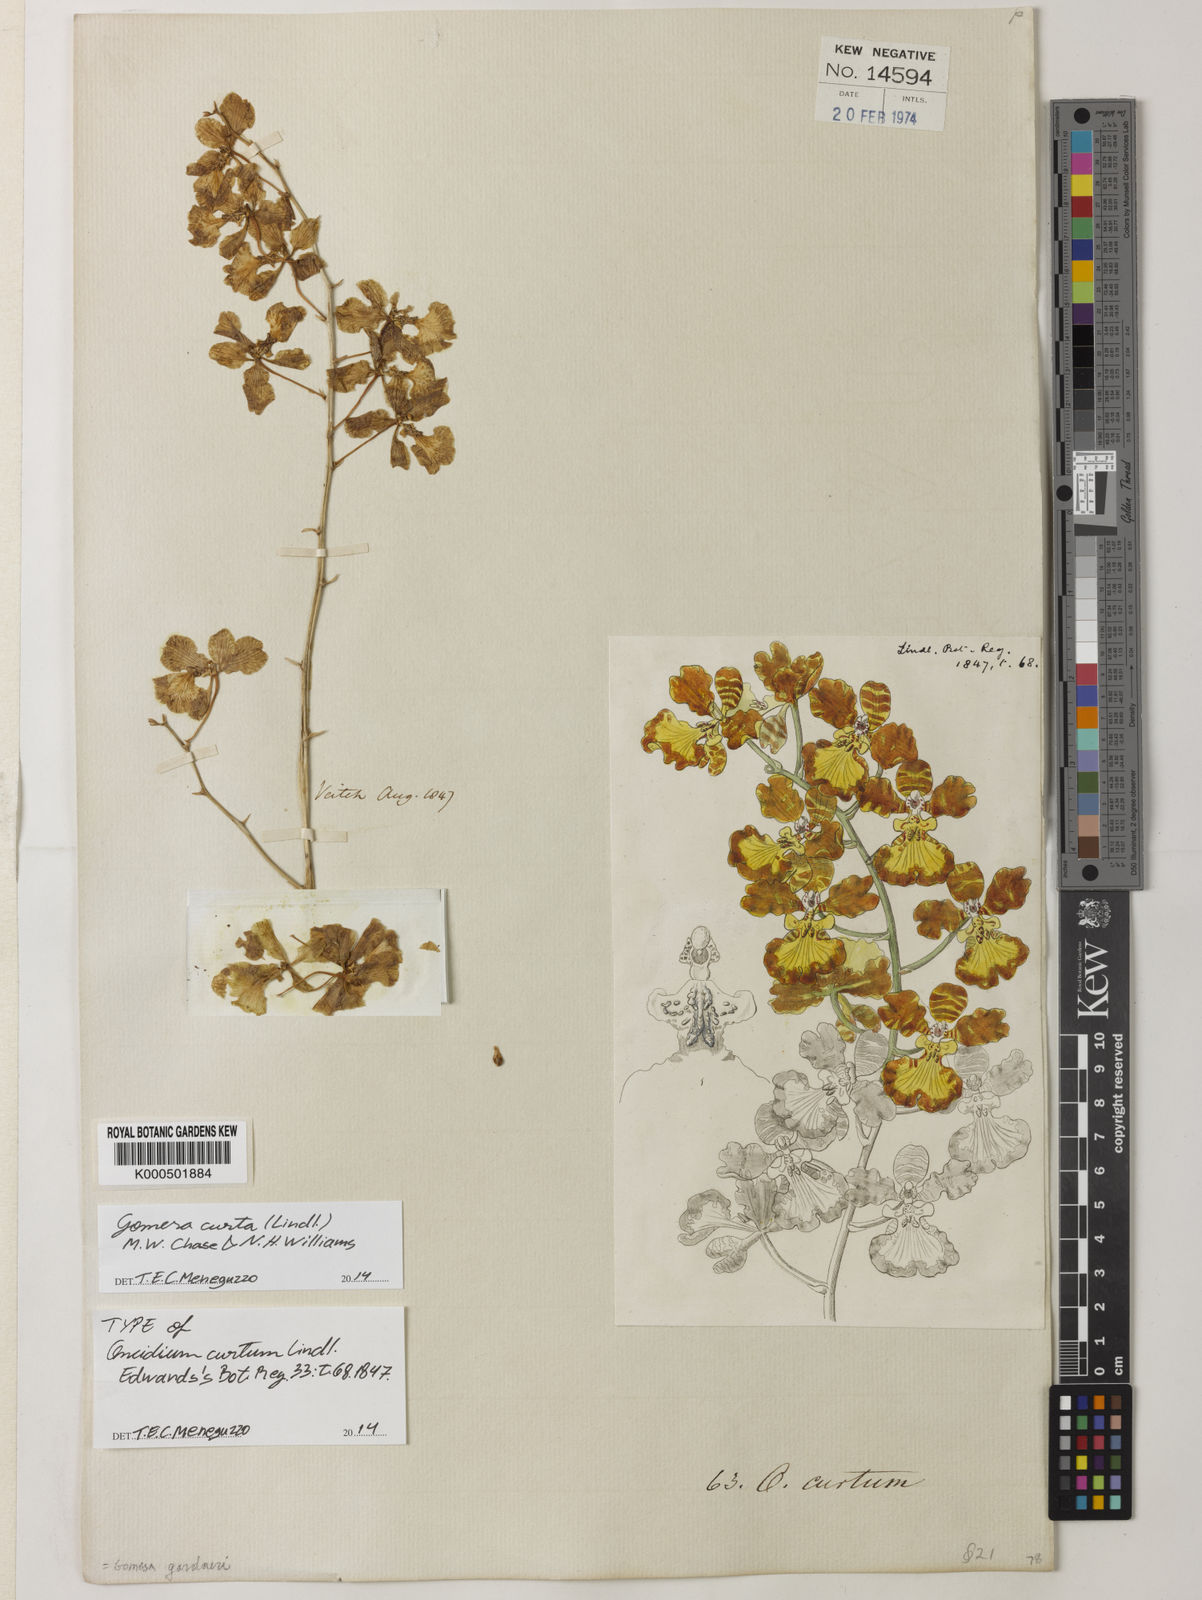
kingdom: Plantae
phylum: Tracheophyta
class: Liliopsida
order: Asparagales
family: Orchidaceae
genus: Gomesa
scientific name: Gomesa gardneri
